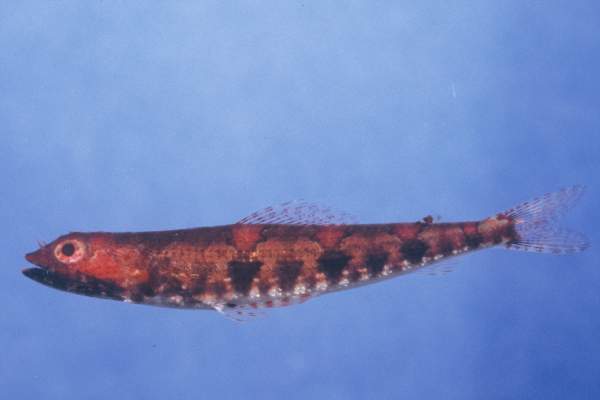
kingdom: Animalia
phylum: Chordata
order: Aulopiformes
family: Synodontidae
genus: Synodus
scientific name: Synodus binotatus
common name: Twospot lizardfish
